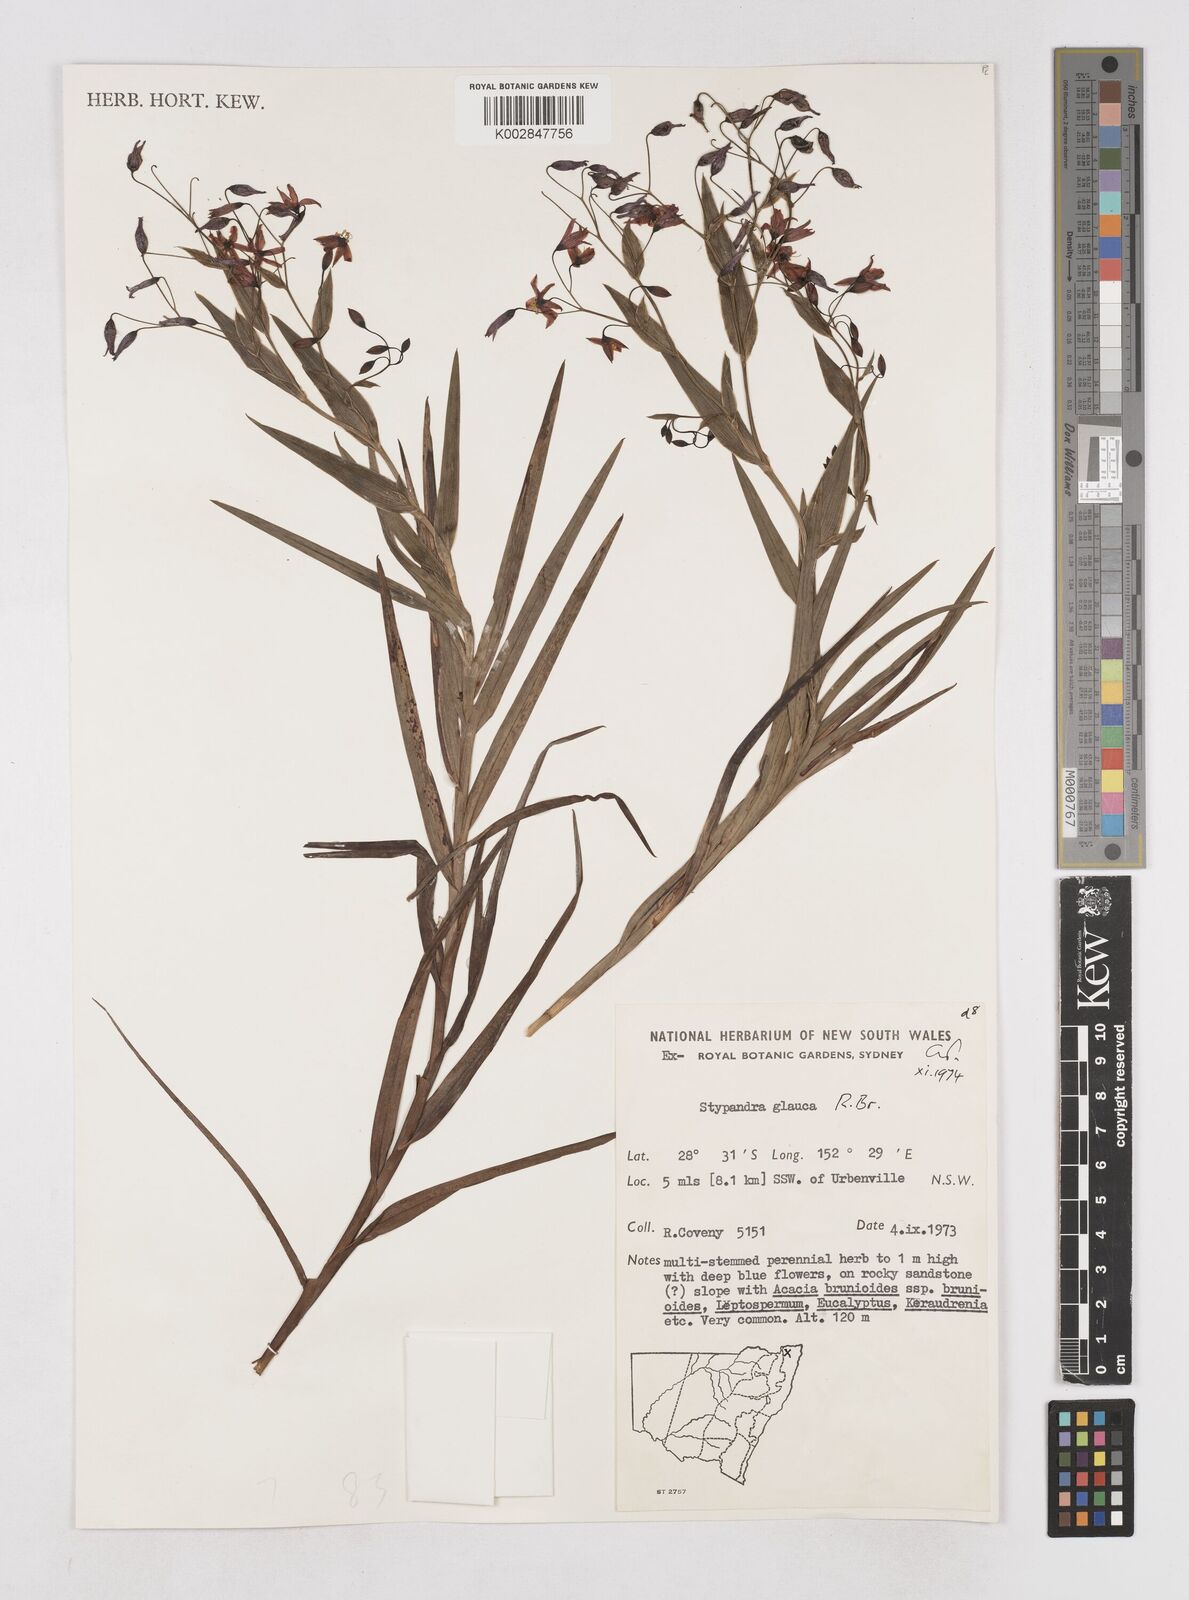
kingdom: Plantae
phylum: Tracheophyta
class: Liliopsida
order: Asparagales
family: Asphodelaceae
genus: Stypandra
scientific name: Stypandra glauca
